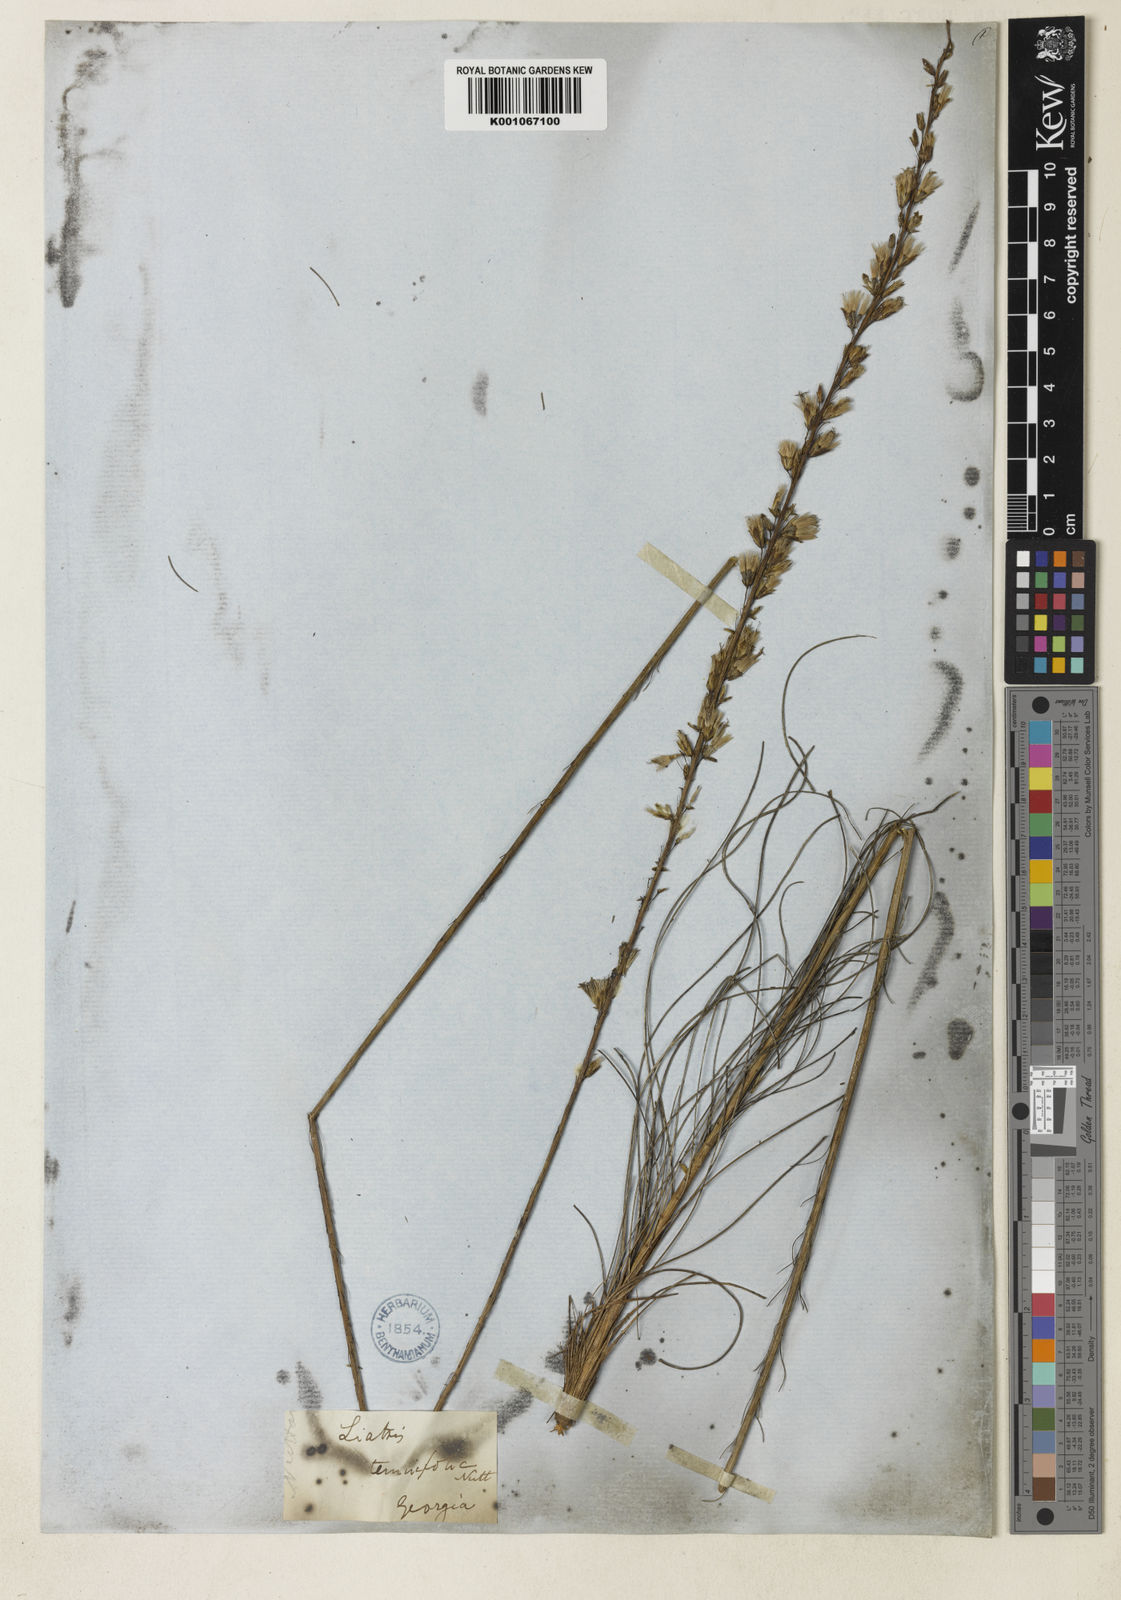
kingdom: Plantae
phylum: Tracheophyta
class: Magnoliopsida
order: Asterales
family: Asteraceae
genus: Liatris
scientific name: Liatris tenuifolia
